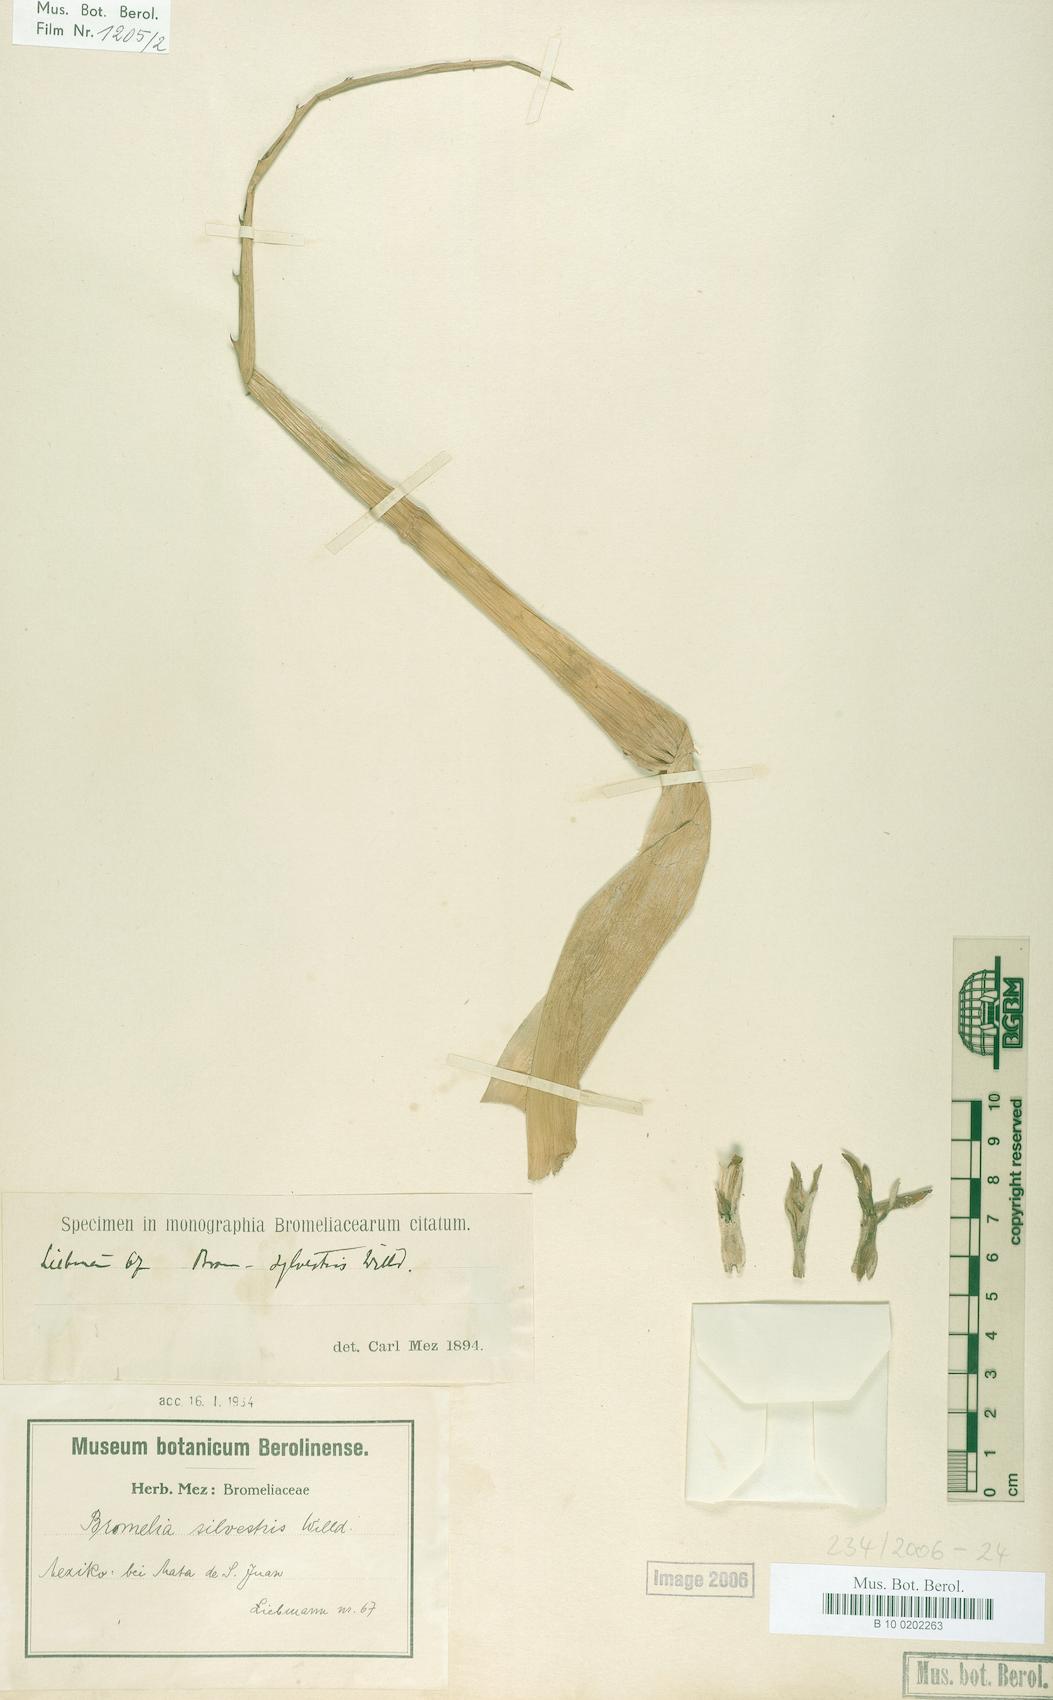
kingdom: Plantae
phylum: Tracheophyta
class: Liliopsida
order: Poales
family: Bromeliaceae
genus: Bromelia
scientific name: Bromelia sylvestris
